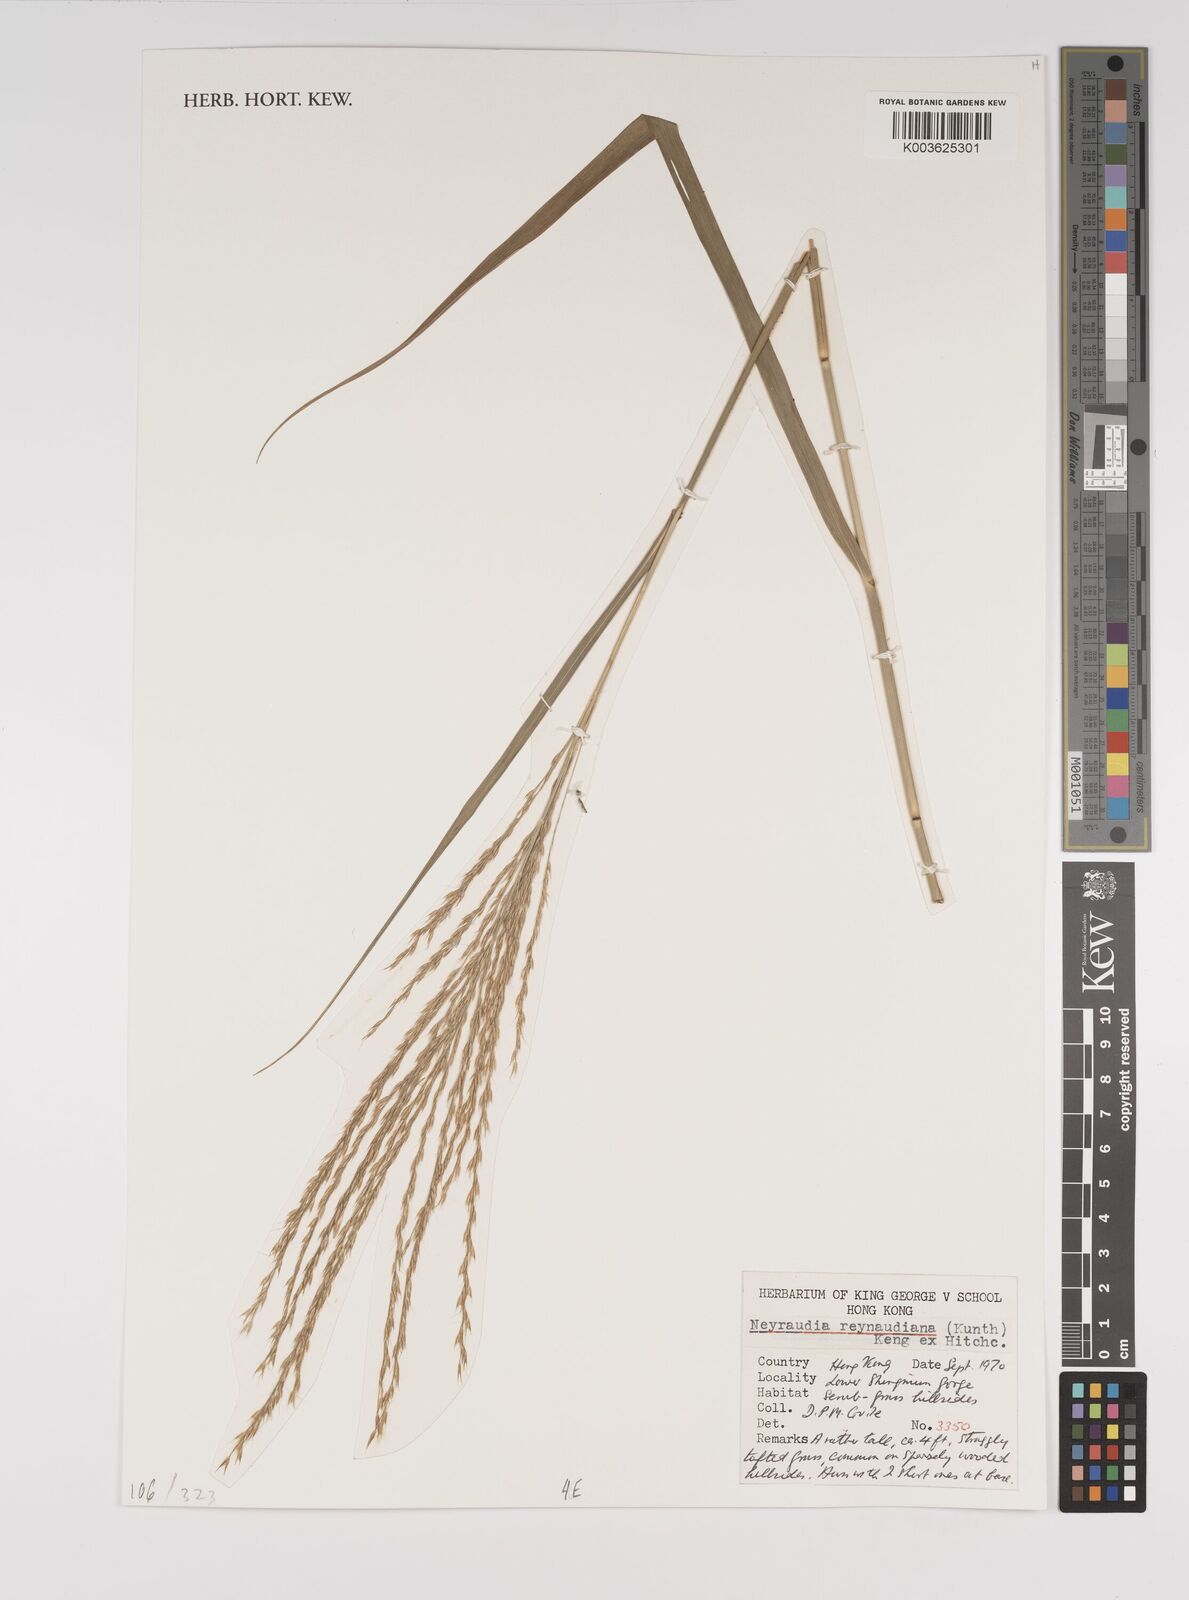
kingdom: Plantae
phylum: Tracheophyta
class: Liliopsida
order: Poales
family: Poaceae
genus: Neyraudia
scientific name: Neyraudia reynaudiana
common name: Silkreed
